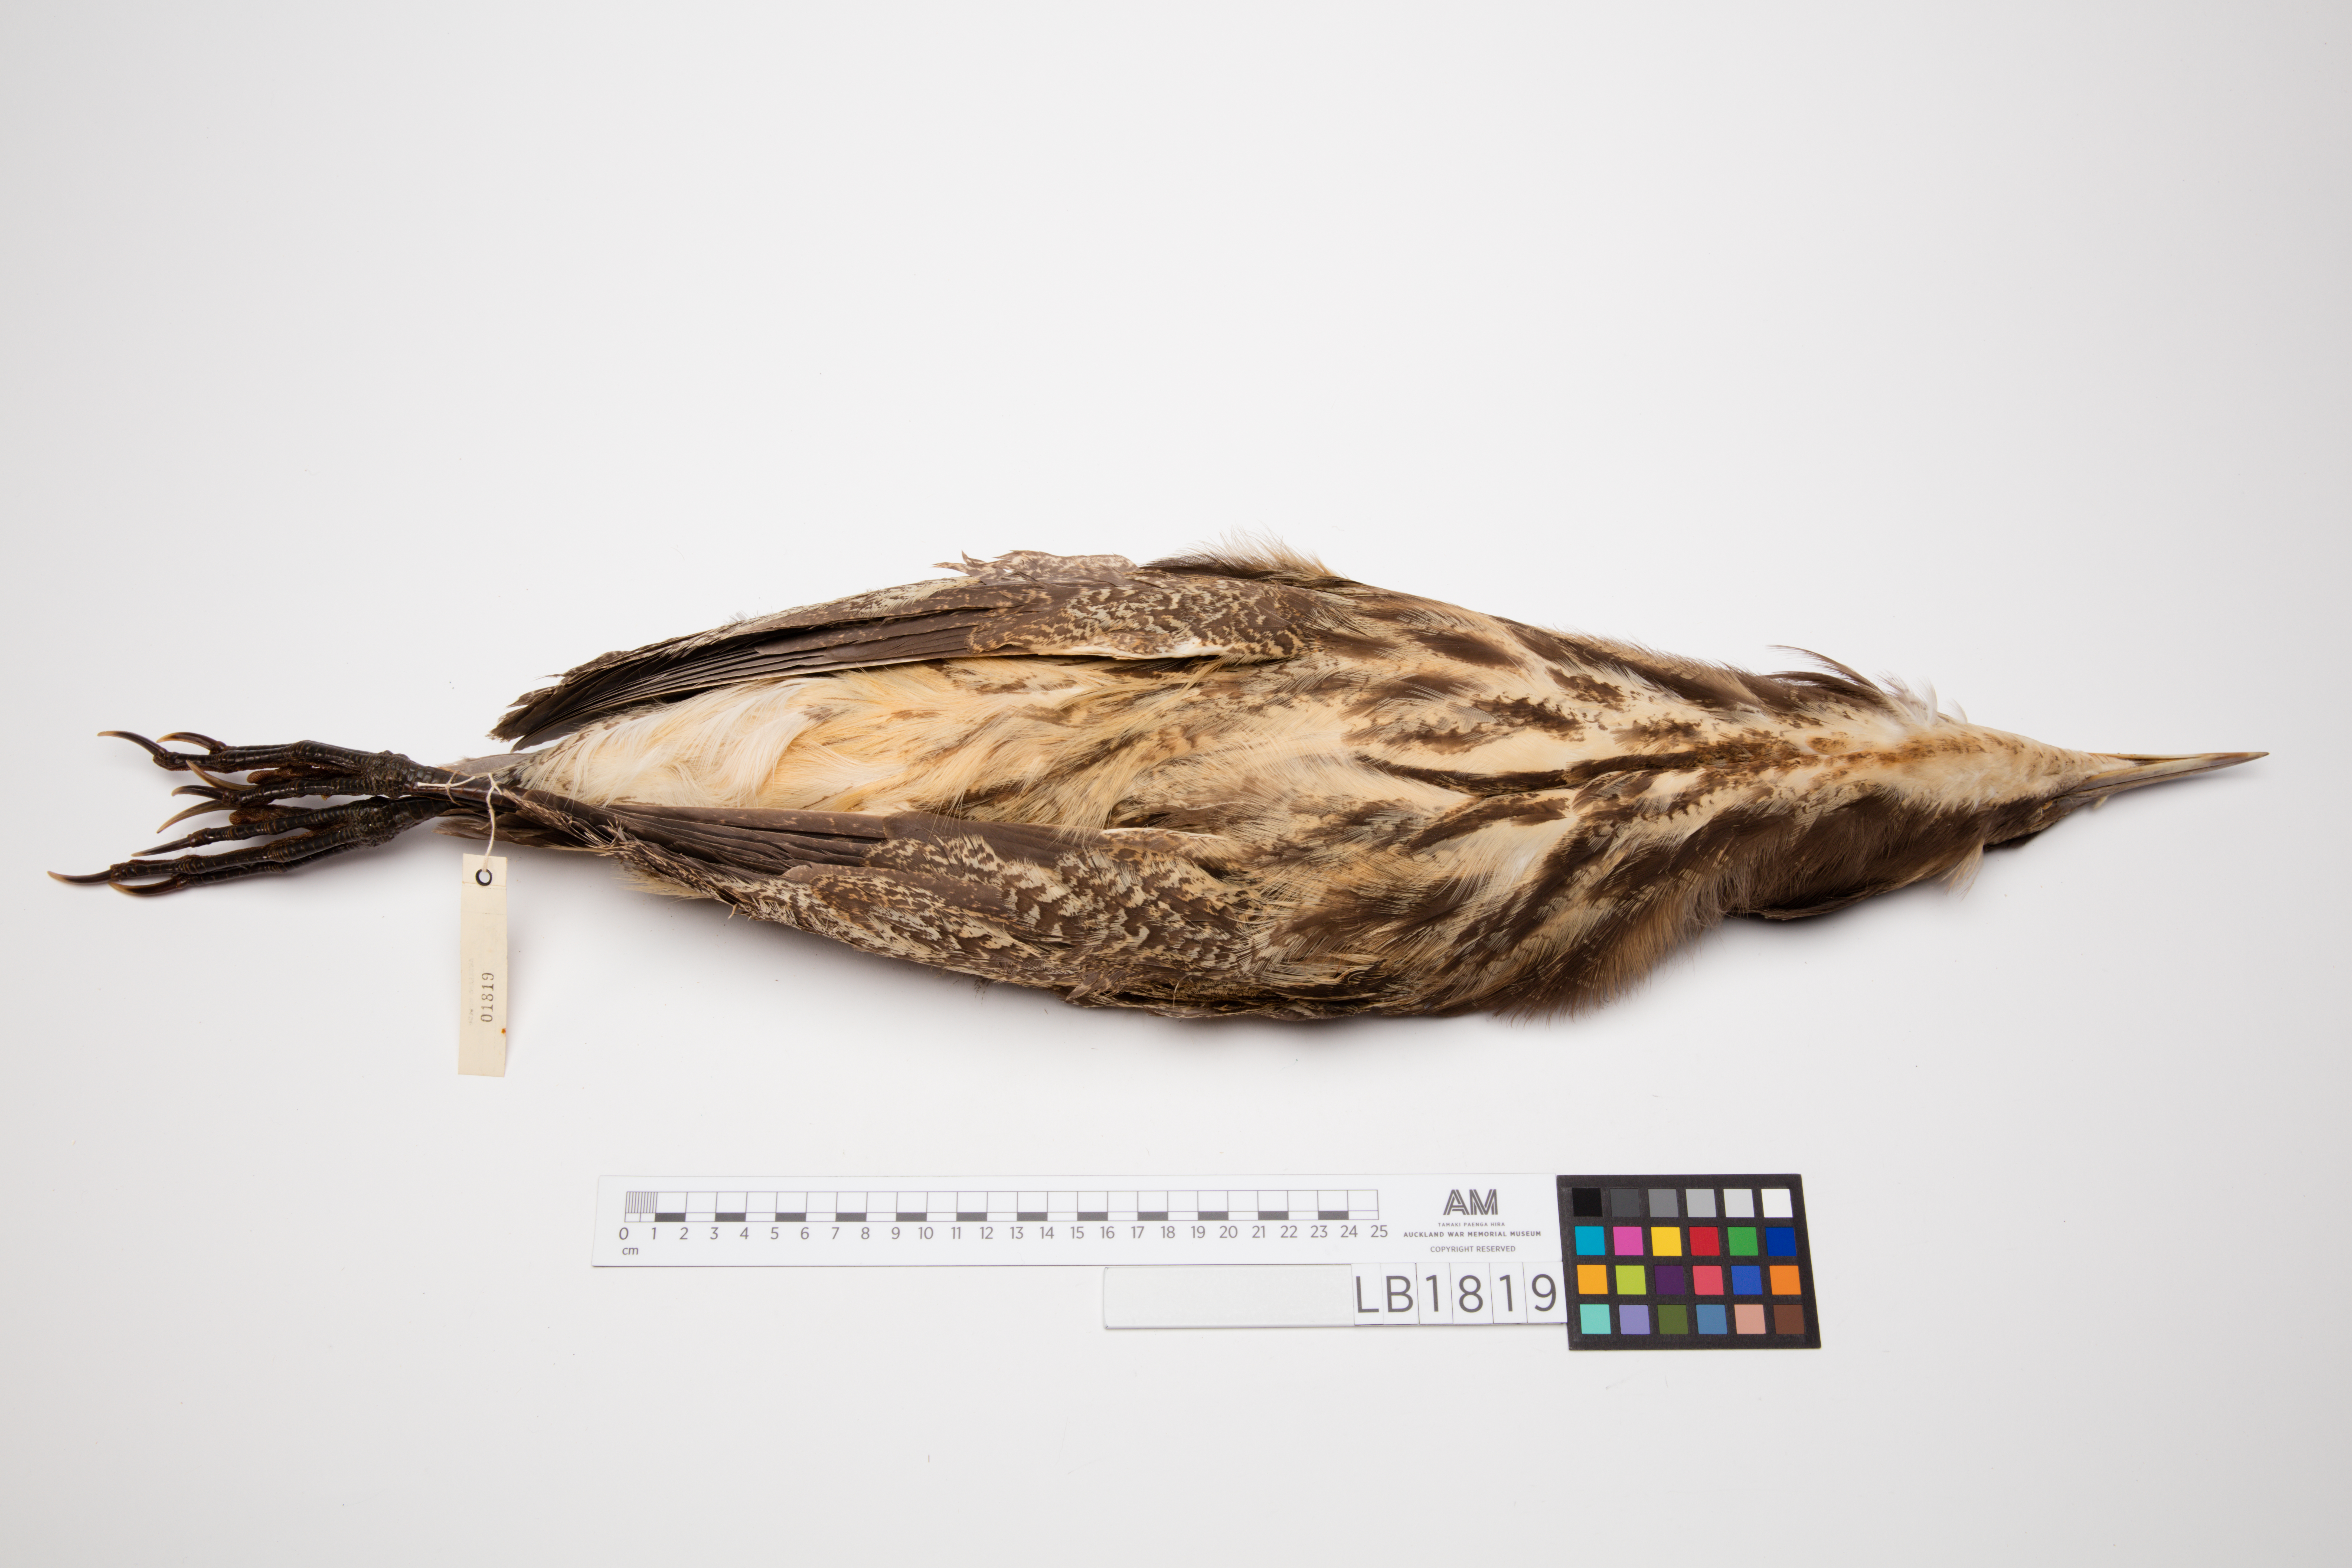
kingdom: Animalia
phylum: Chordata
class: Aves
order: Pelecaniformes
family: Ardeidae
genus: Botaurus
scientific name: Botaurus poiciloptilus
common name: Australasian bittern
